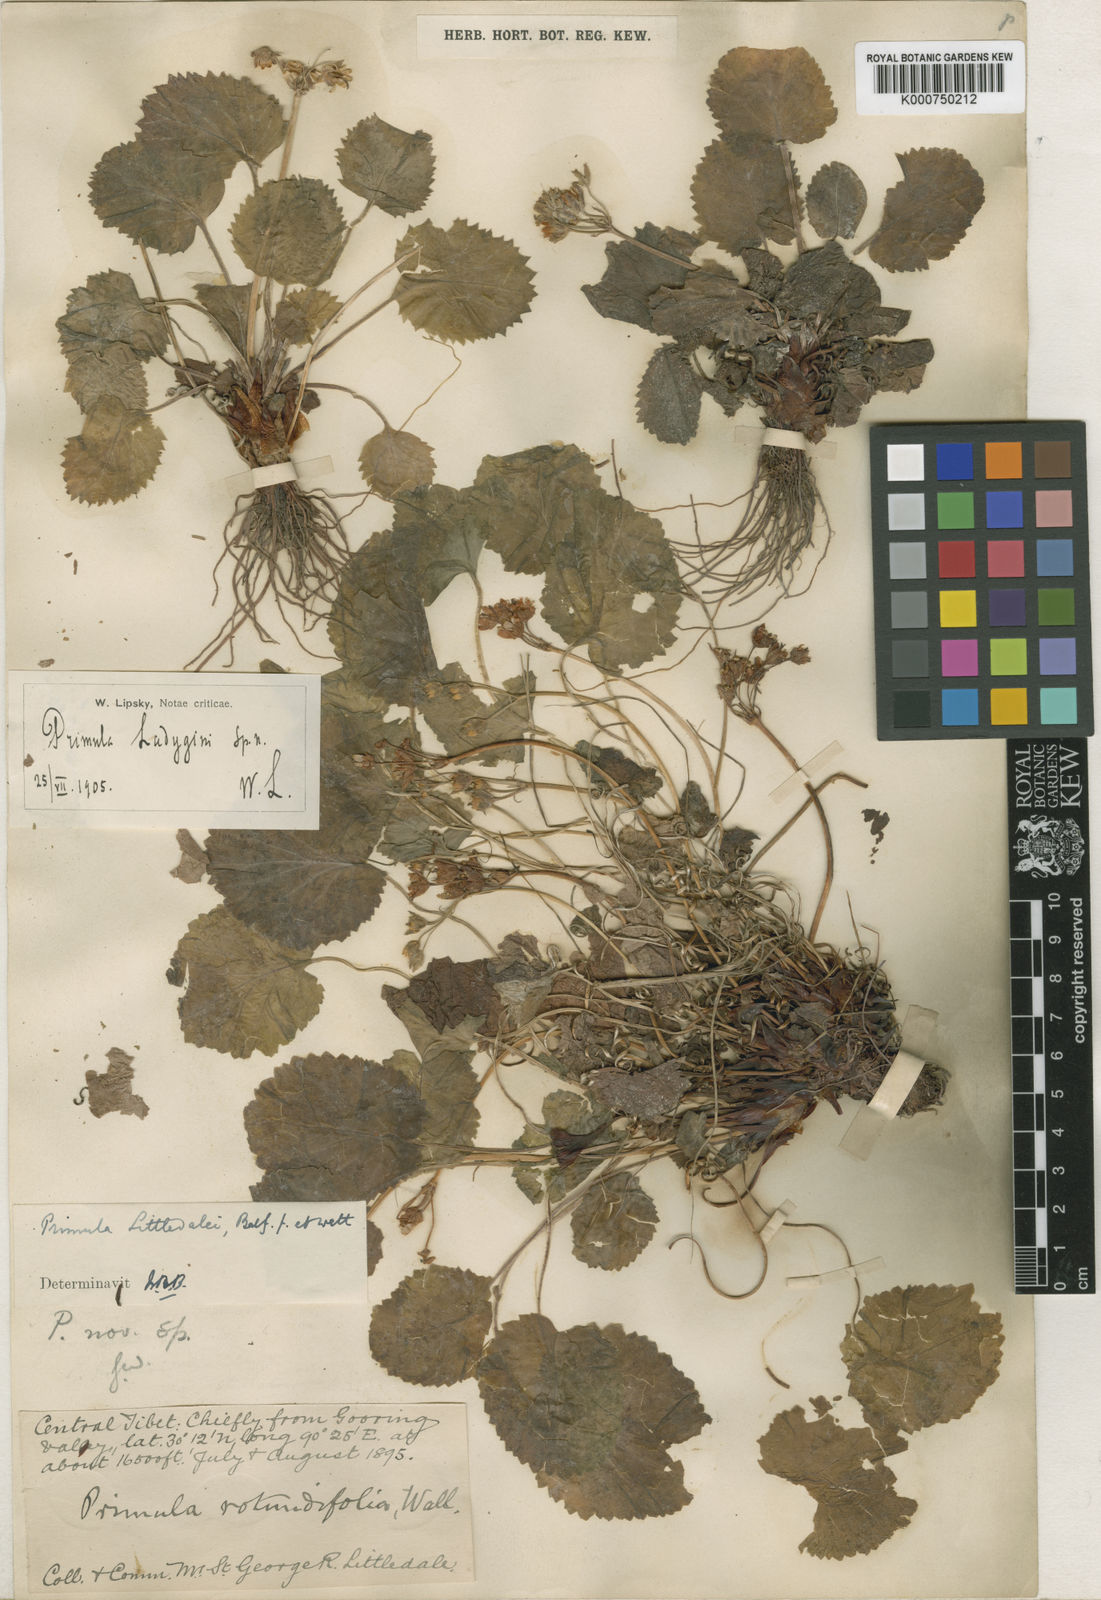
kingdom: Plantae
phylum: Tracheophyta
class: Magnoliopsida
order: Ericales
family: Primulaceae
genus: Primula
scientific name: Primula littledalei
